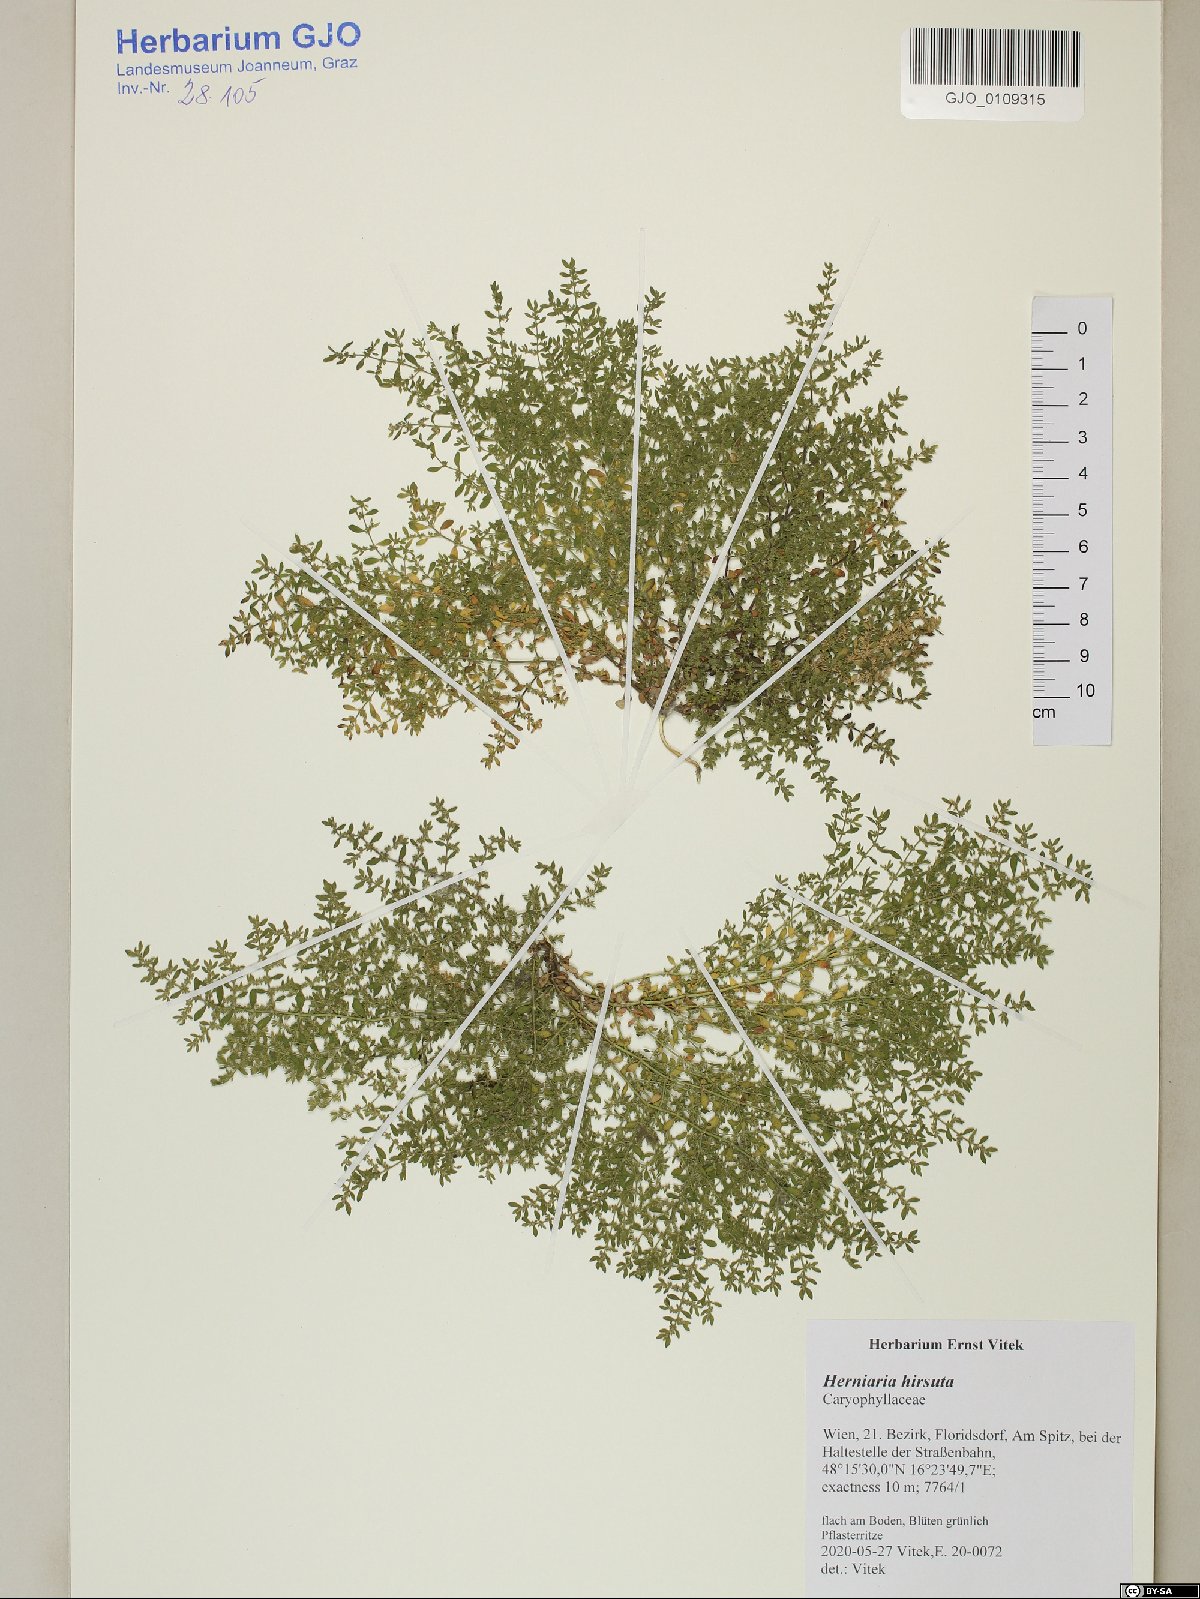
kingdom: Plantae
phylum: Tracheophyta
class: Magnoliopsida
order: Caryophyllales
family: Caryophyllaceae
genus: Herniaria
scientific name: Herniaria hirsuta
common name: Hairy rupturewort
